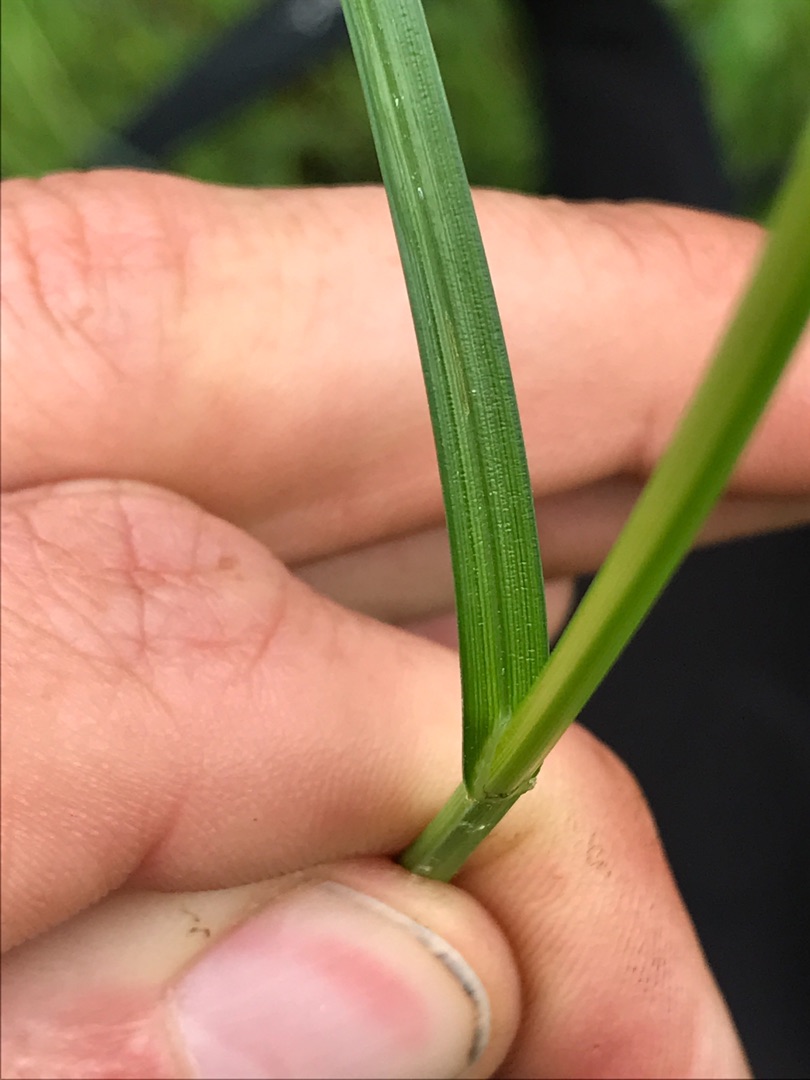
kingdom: Plantae
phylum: Tracheophyta
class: Liliopsida
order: Poales
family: Cyperaceae
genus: Carex
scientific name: Carex canescens
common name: Grå star
